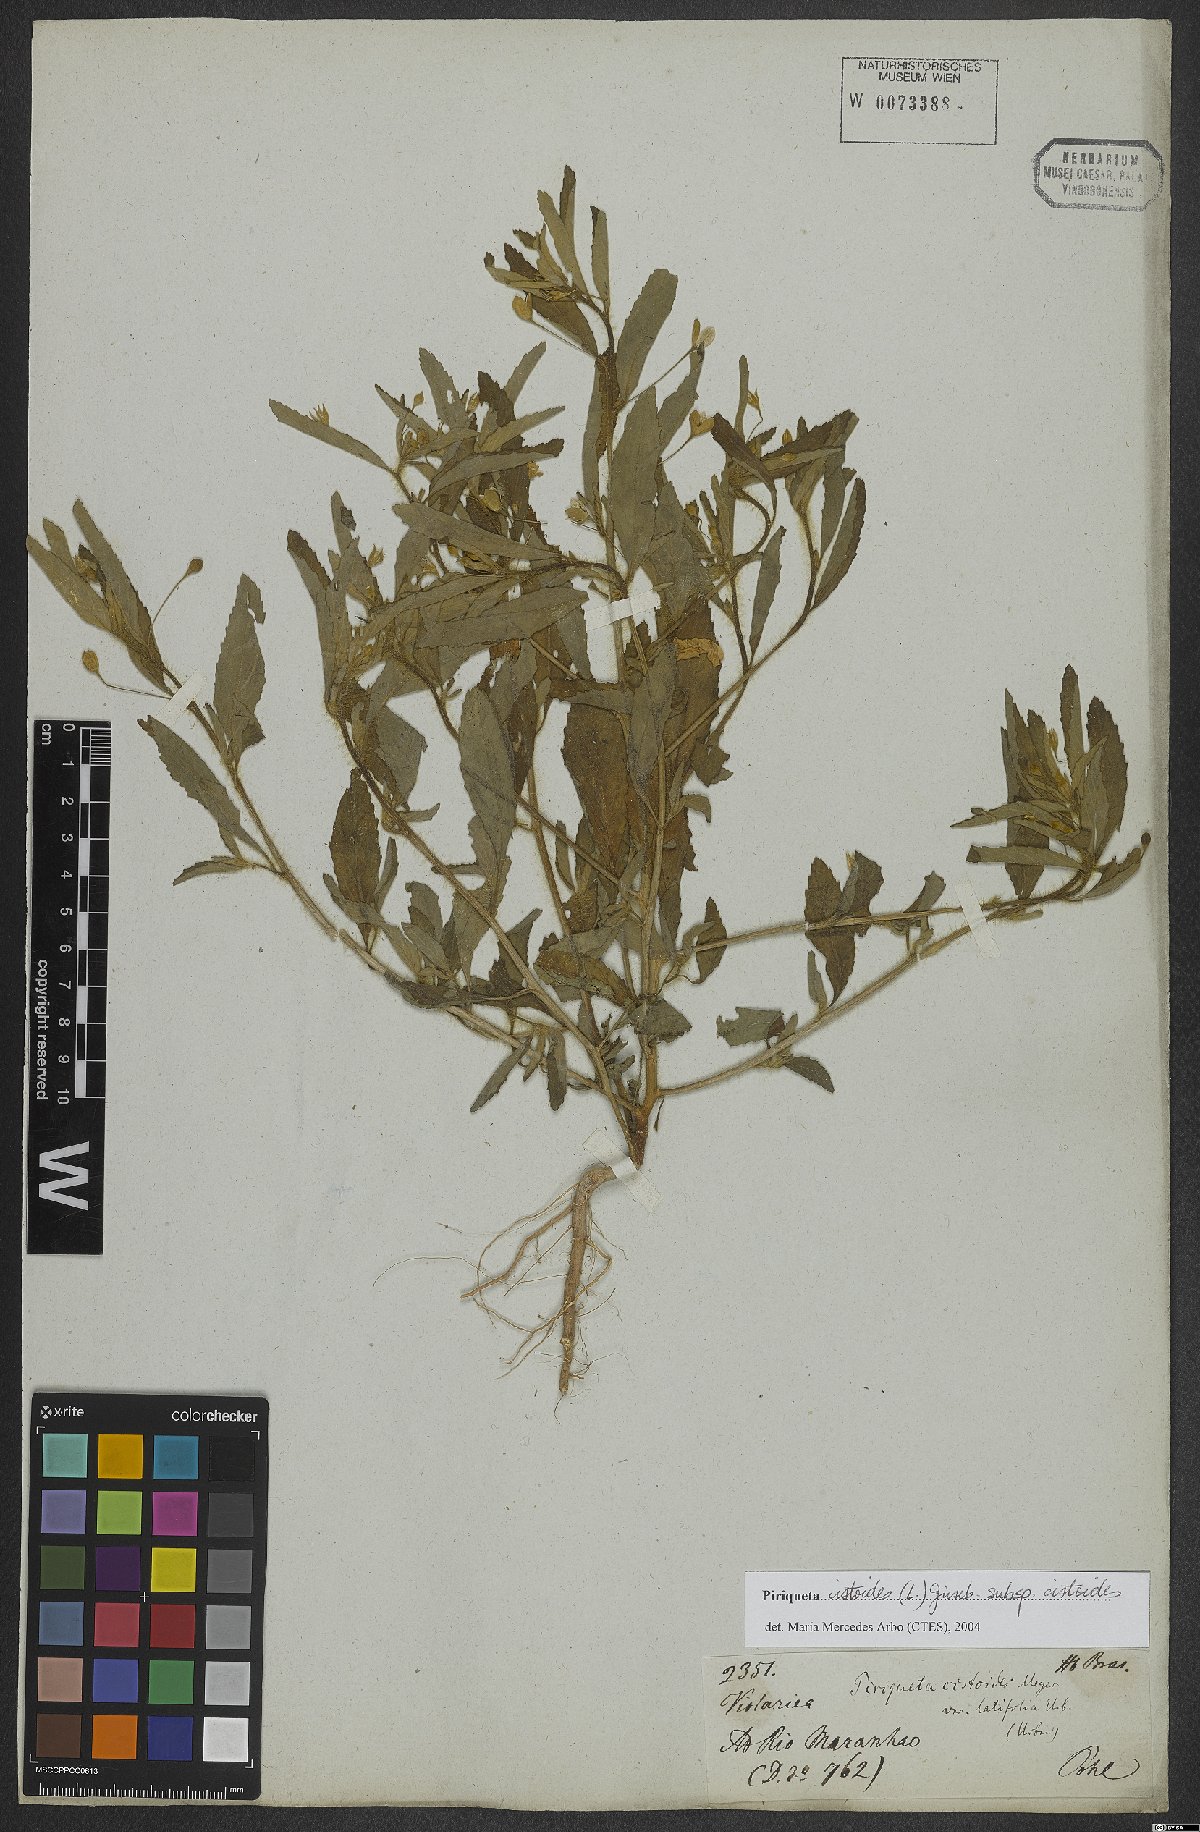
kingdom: Plantae
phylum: Tracheophyta
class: Magnoliopsida
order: Malpighiales
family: Turneraceae
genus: Piriqueta
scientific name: Piriqueta cistoides
